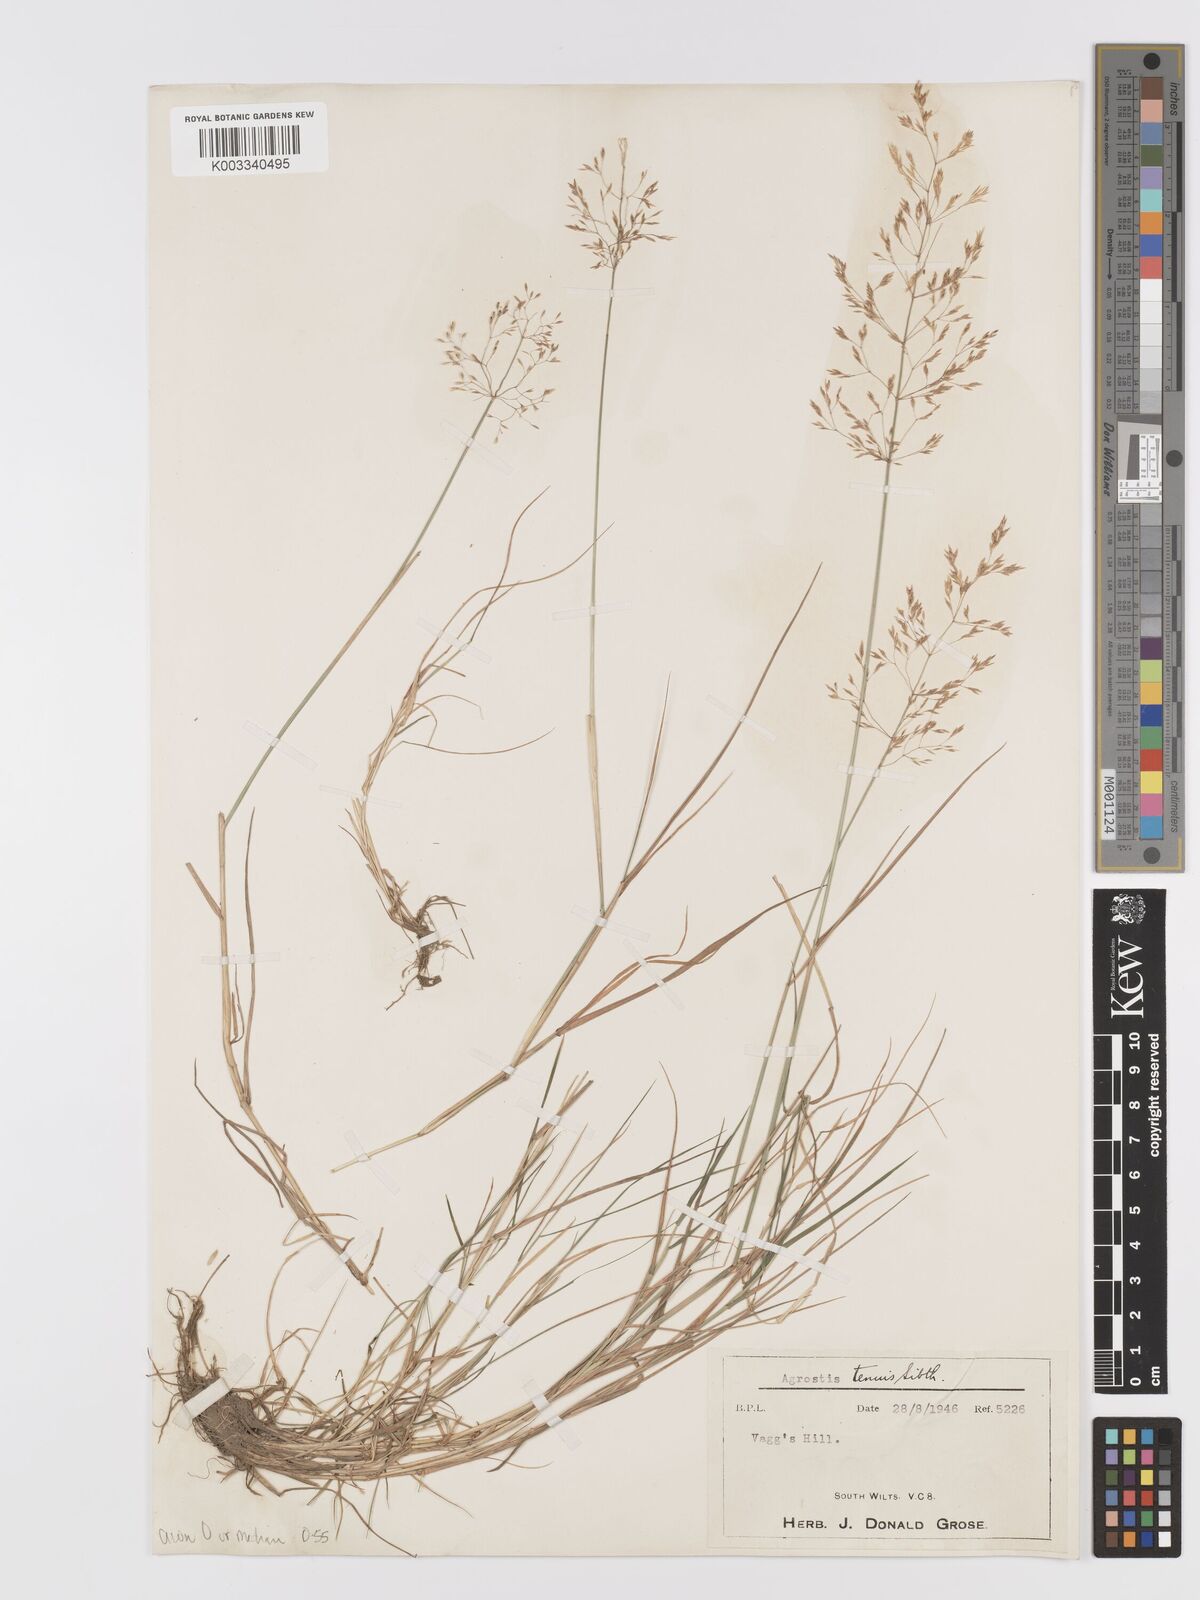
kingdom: Plantae
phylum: Tracheophyta
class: Liliopsida
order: Poales
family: Poaceae
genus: Agrostis
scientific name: Agrostis
